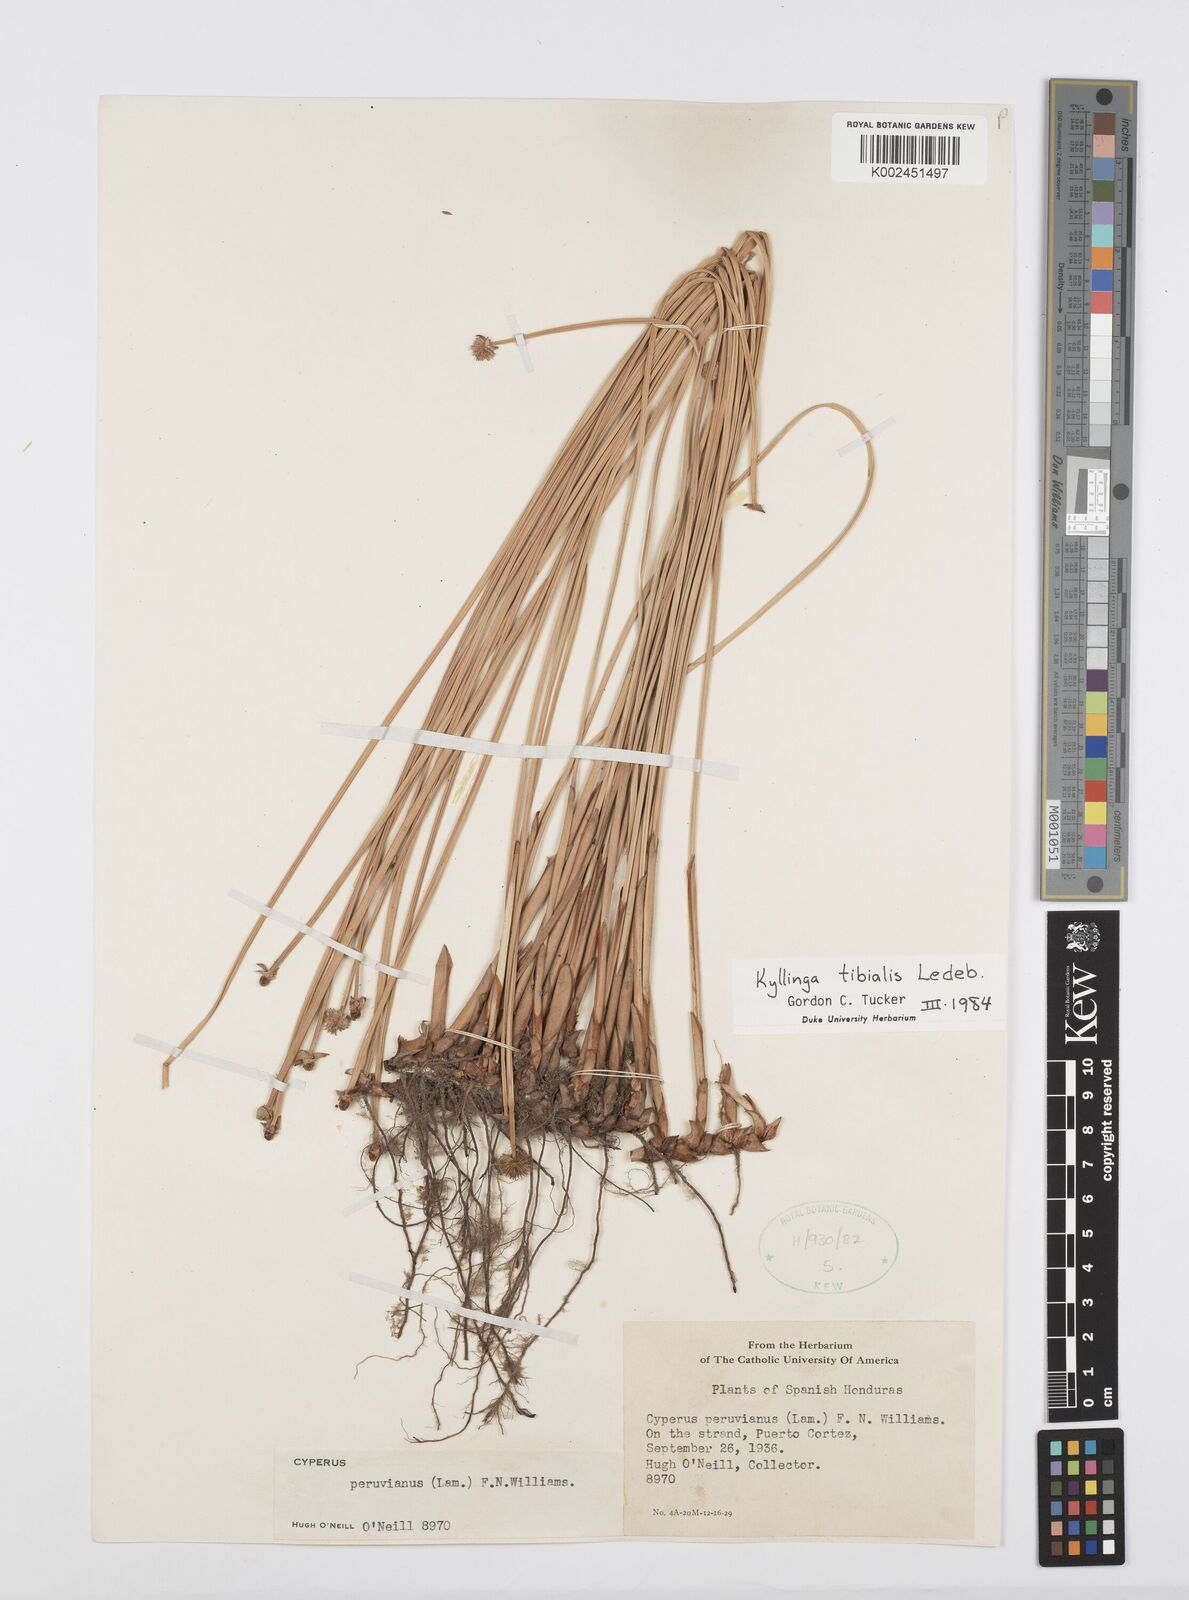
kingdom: Plantae
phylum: Tracheophyta
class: Liliopsida
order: Poales
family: Cyperaceae
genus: Cyperus
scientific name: Cyperus obtusatus
